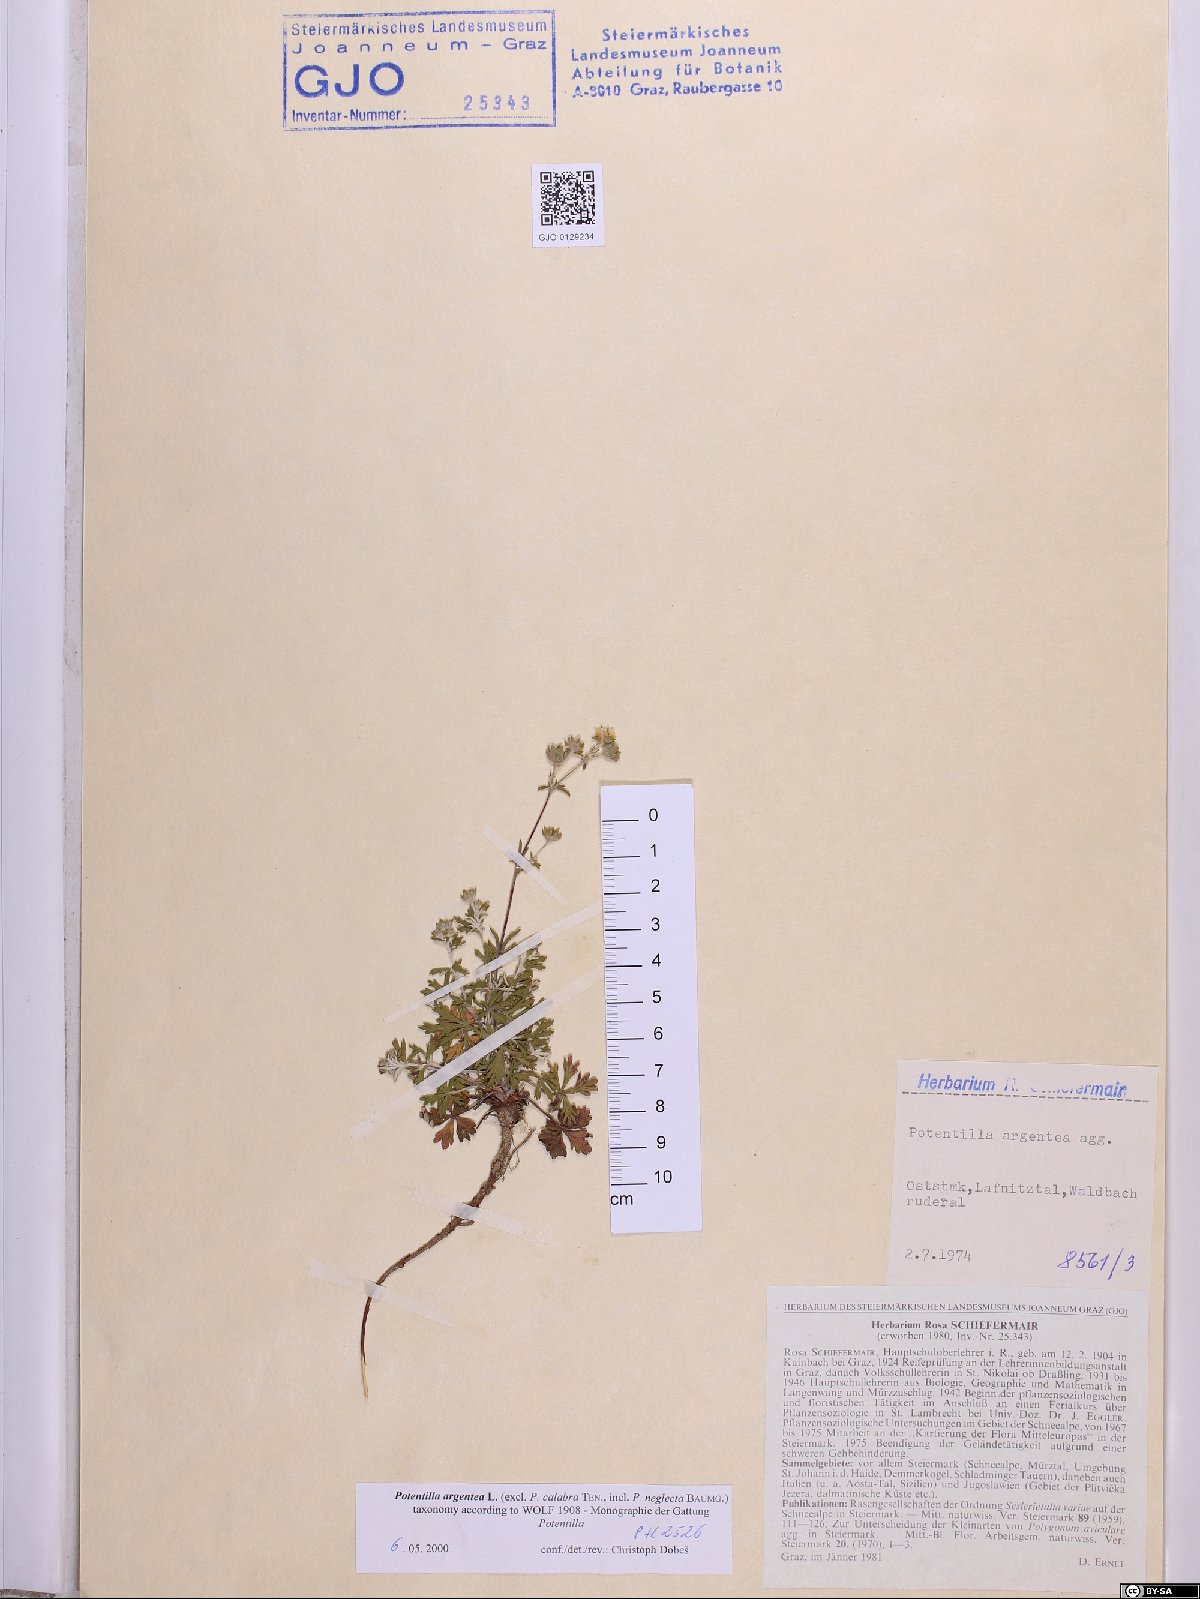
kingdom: Plantae
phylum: Tracheophyta
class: Magnoliopsida
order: Rosales
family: Rosaceae
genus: Potentilla
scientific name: Potentilla argentea
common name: Hoary cinquefoil
